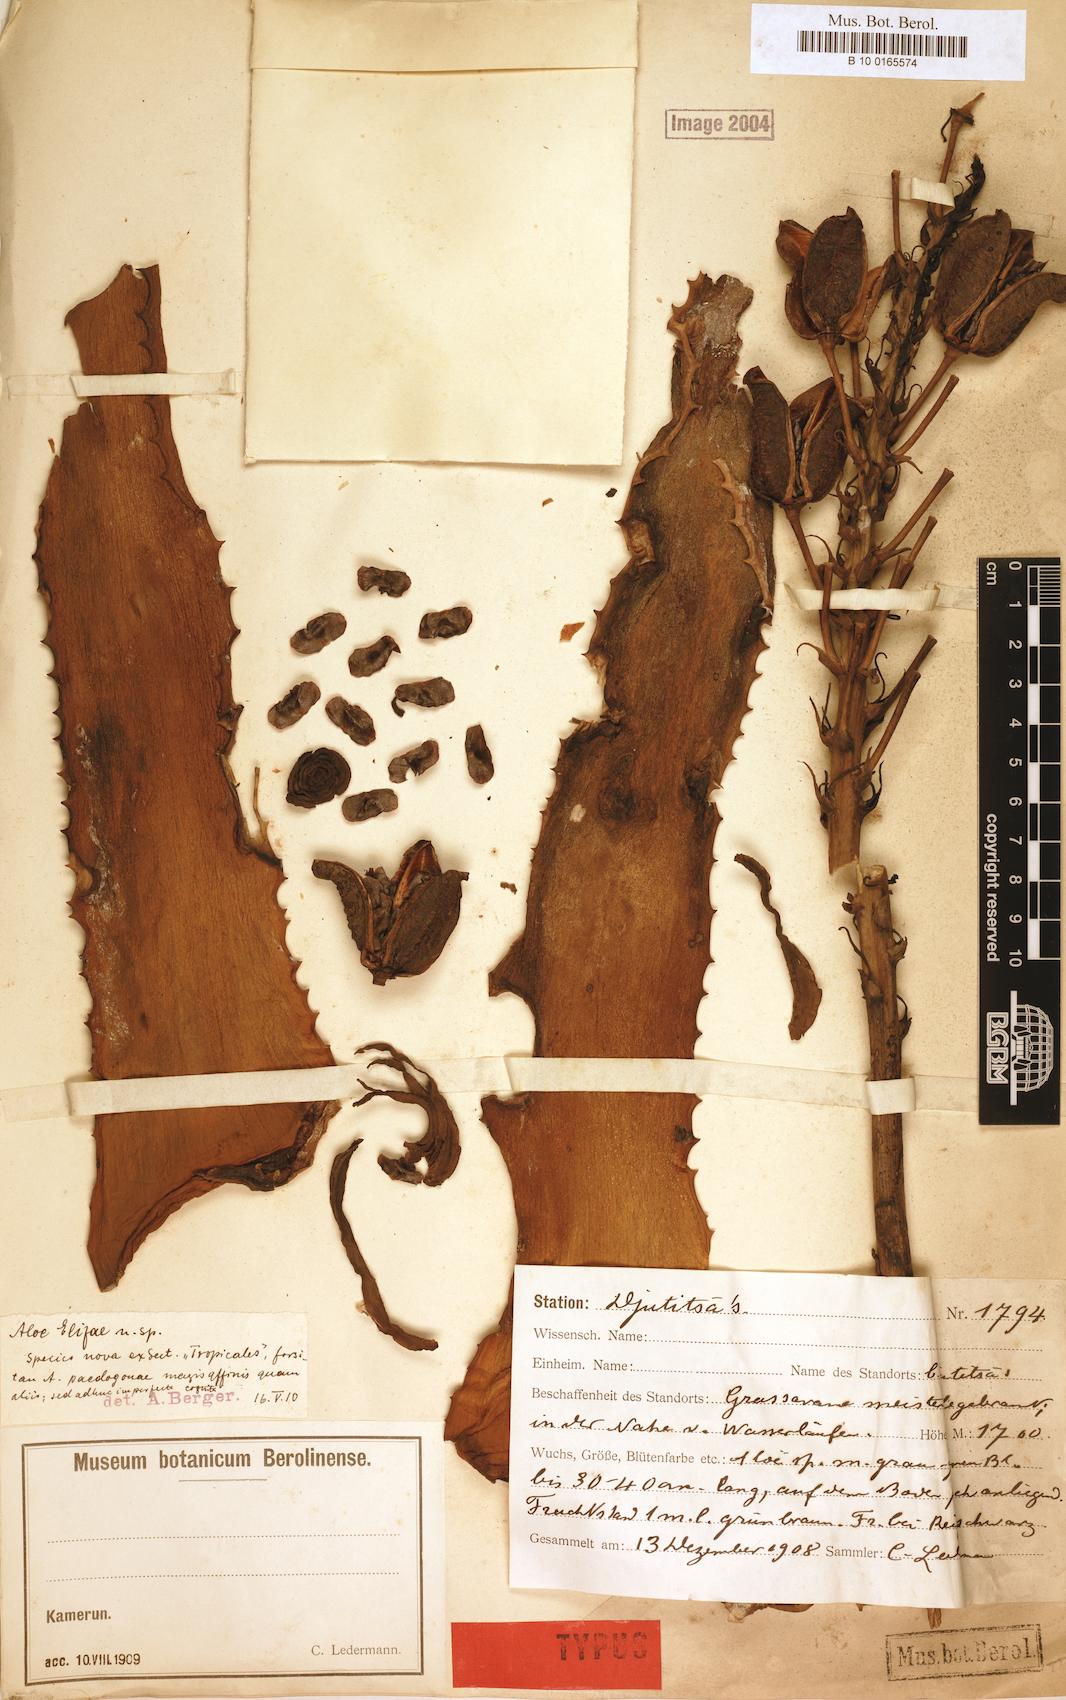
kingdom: Plantae
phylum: Tracheophyta
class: Liliopsida
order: Asparagales
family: Asphodelaceae
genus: Aloe
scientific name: Aloe elizae
